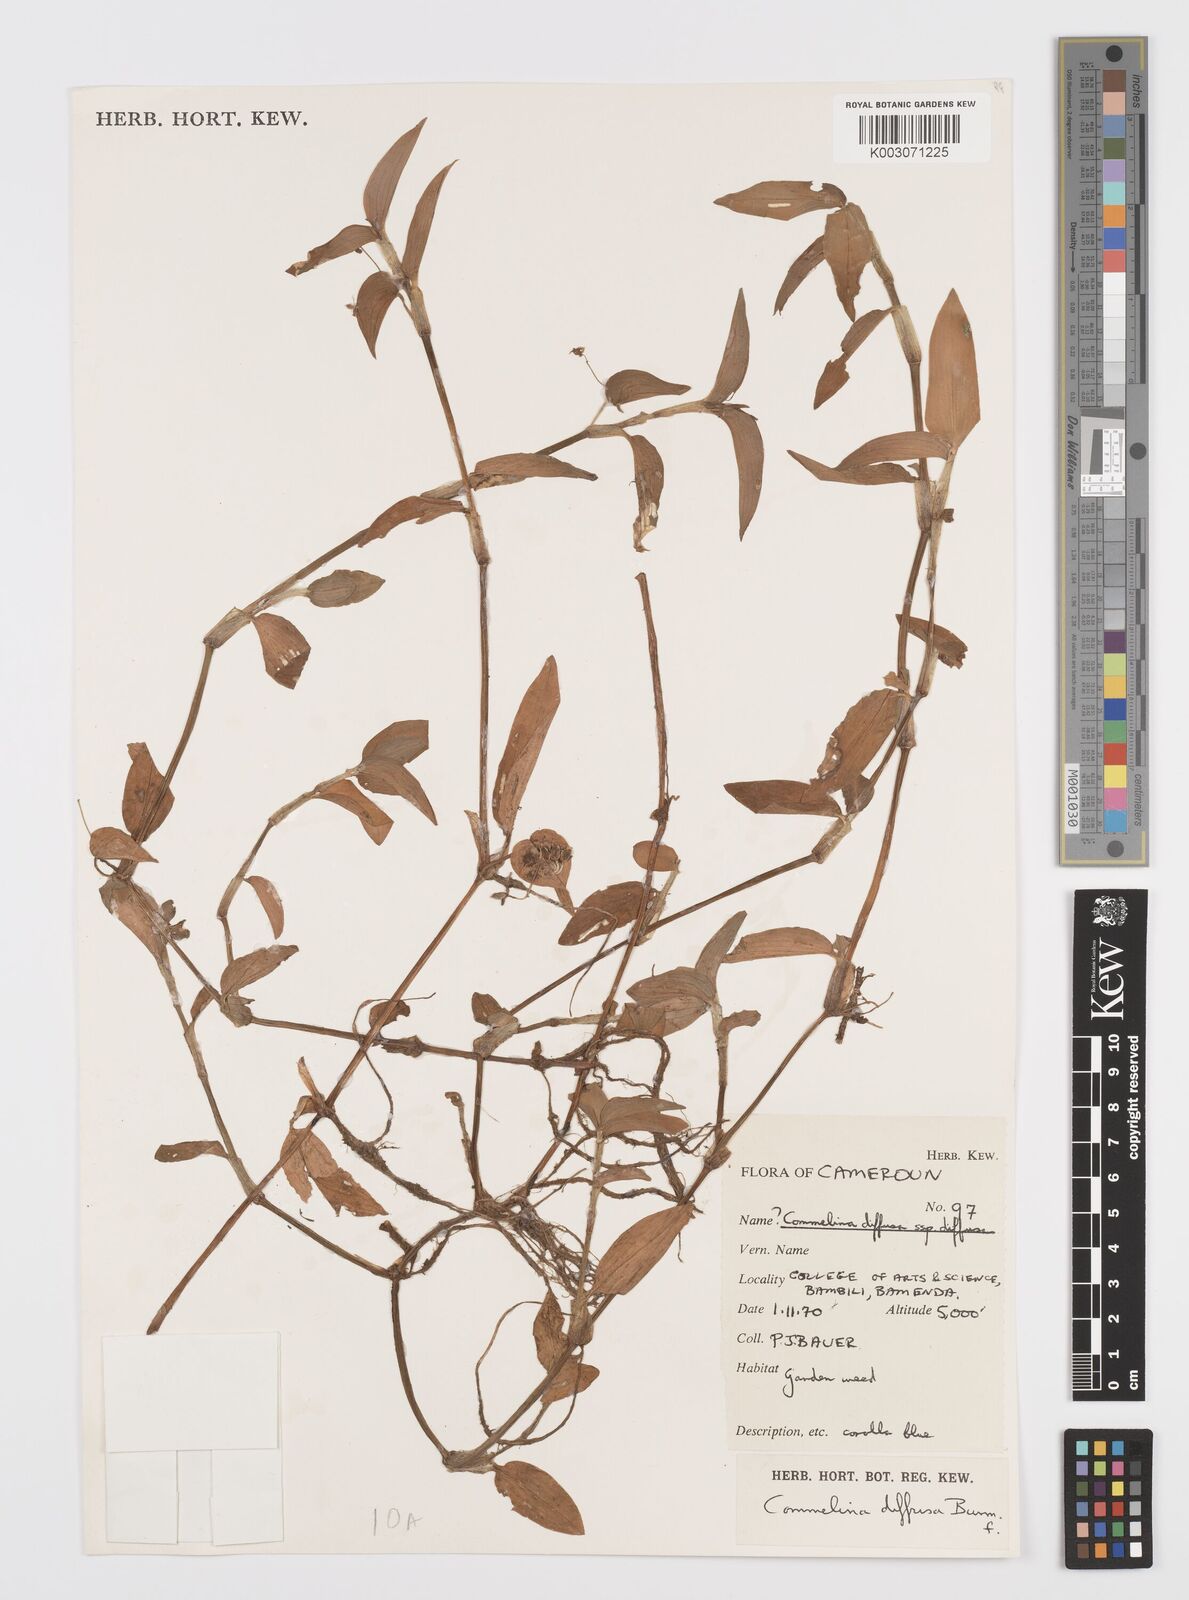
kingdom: Plantae
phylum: Tracheophyta
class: Liliopsida
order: Commelinales
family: Commelinaceae
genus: Commelina
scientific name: Commelina diffusa
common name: Climbing dayflower
